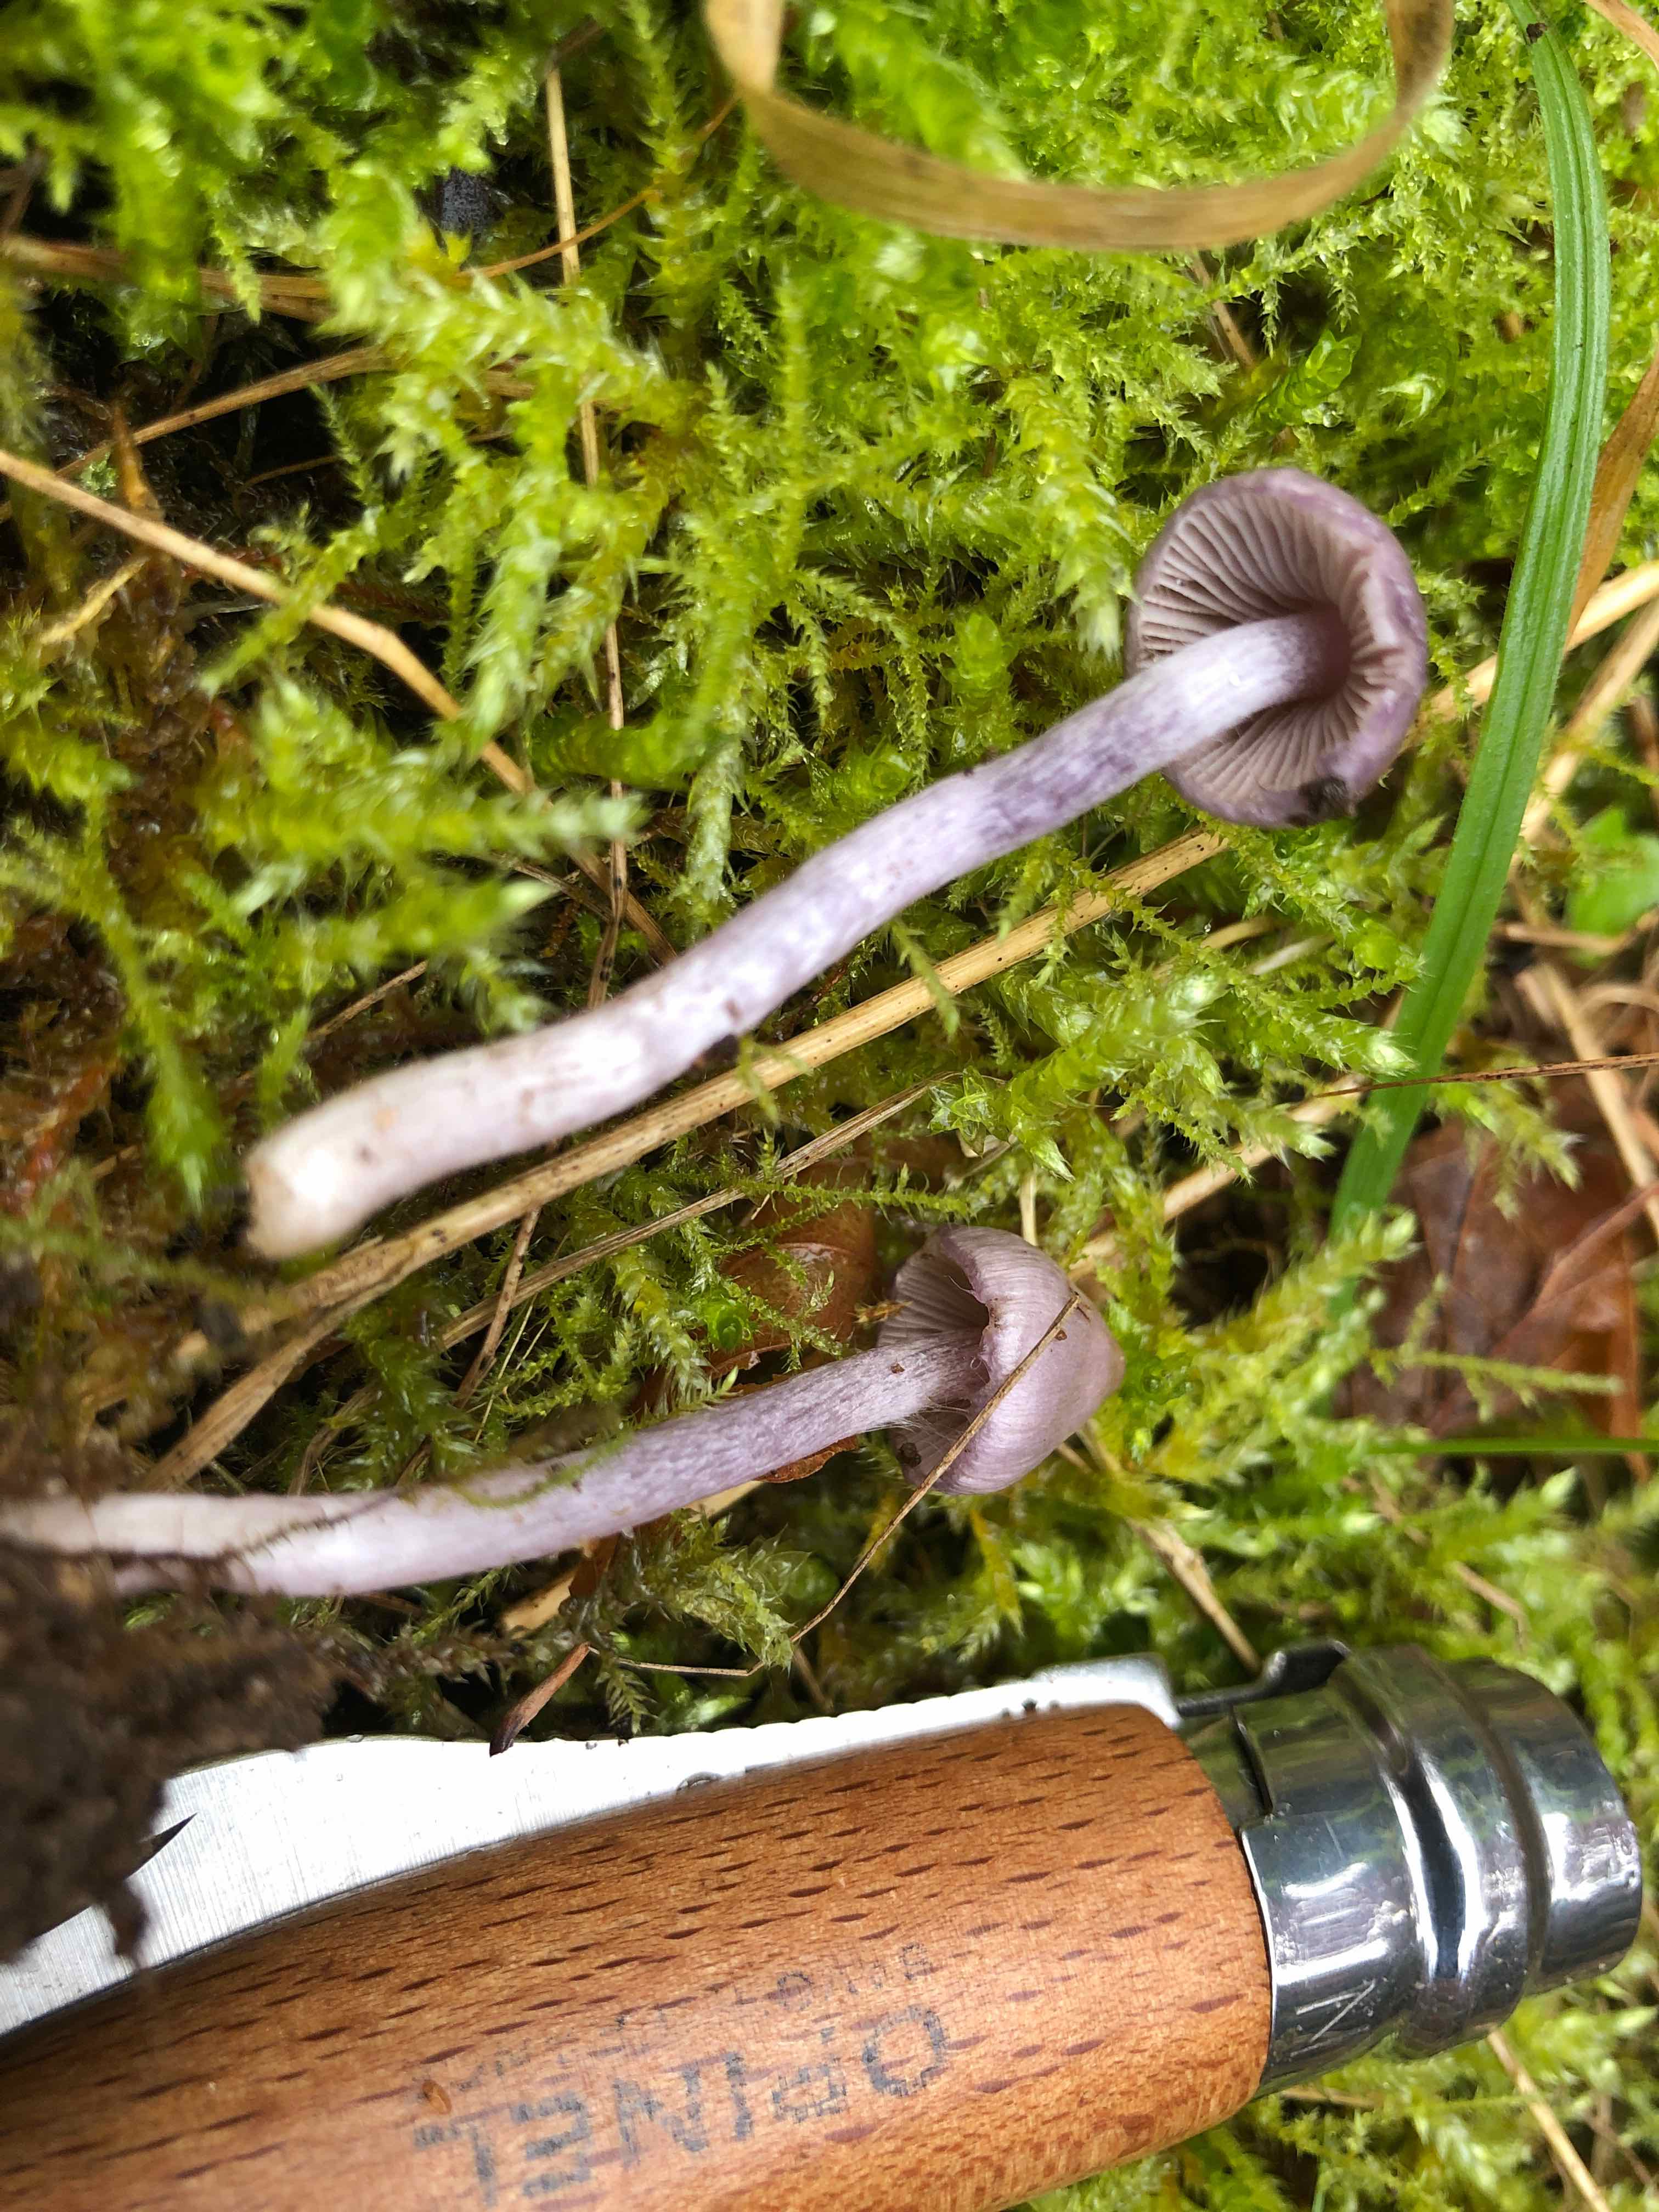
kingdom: Fungi
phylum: Basidiomycota
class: Agaricomycetes
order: Agaricales
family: Inocybaceae
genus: Inocybe
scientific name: Inocybe geophylla
